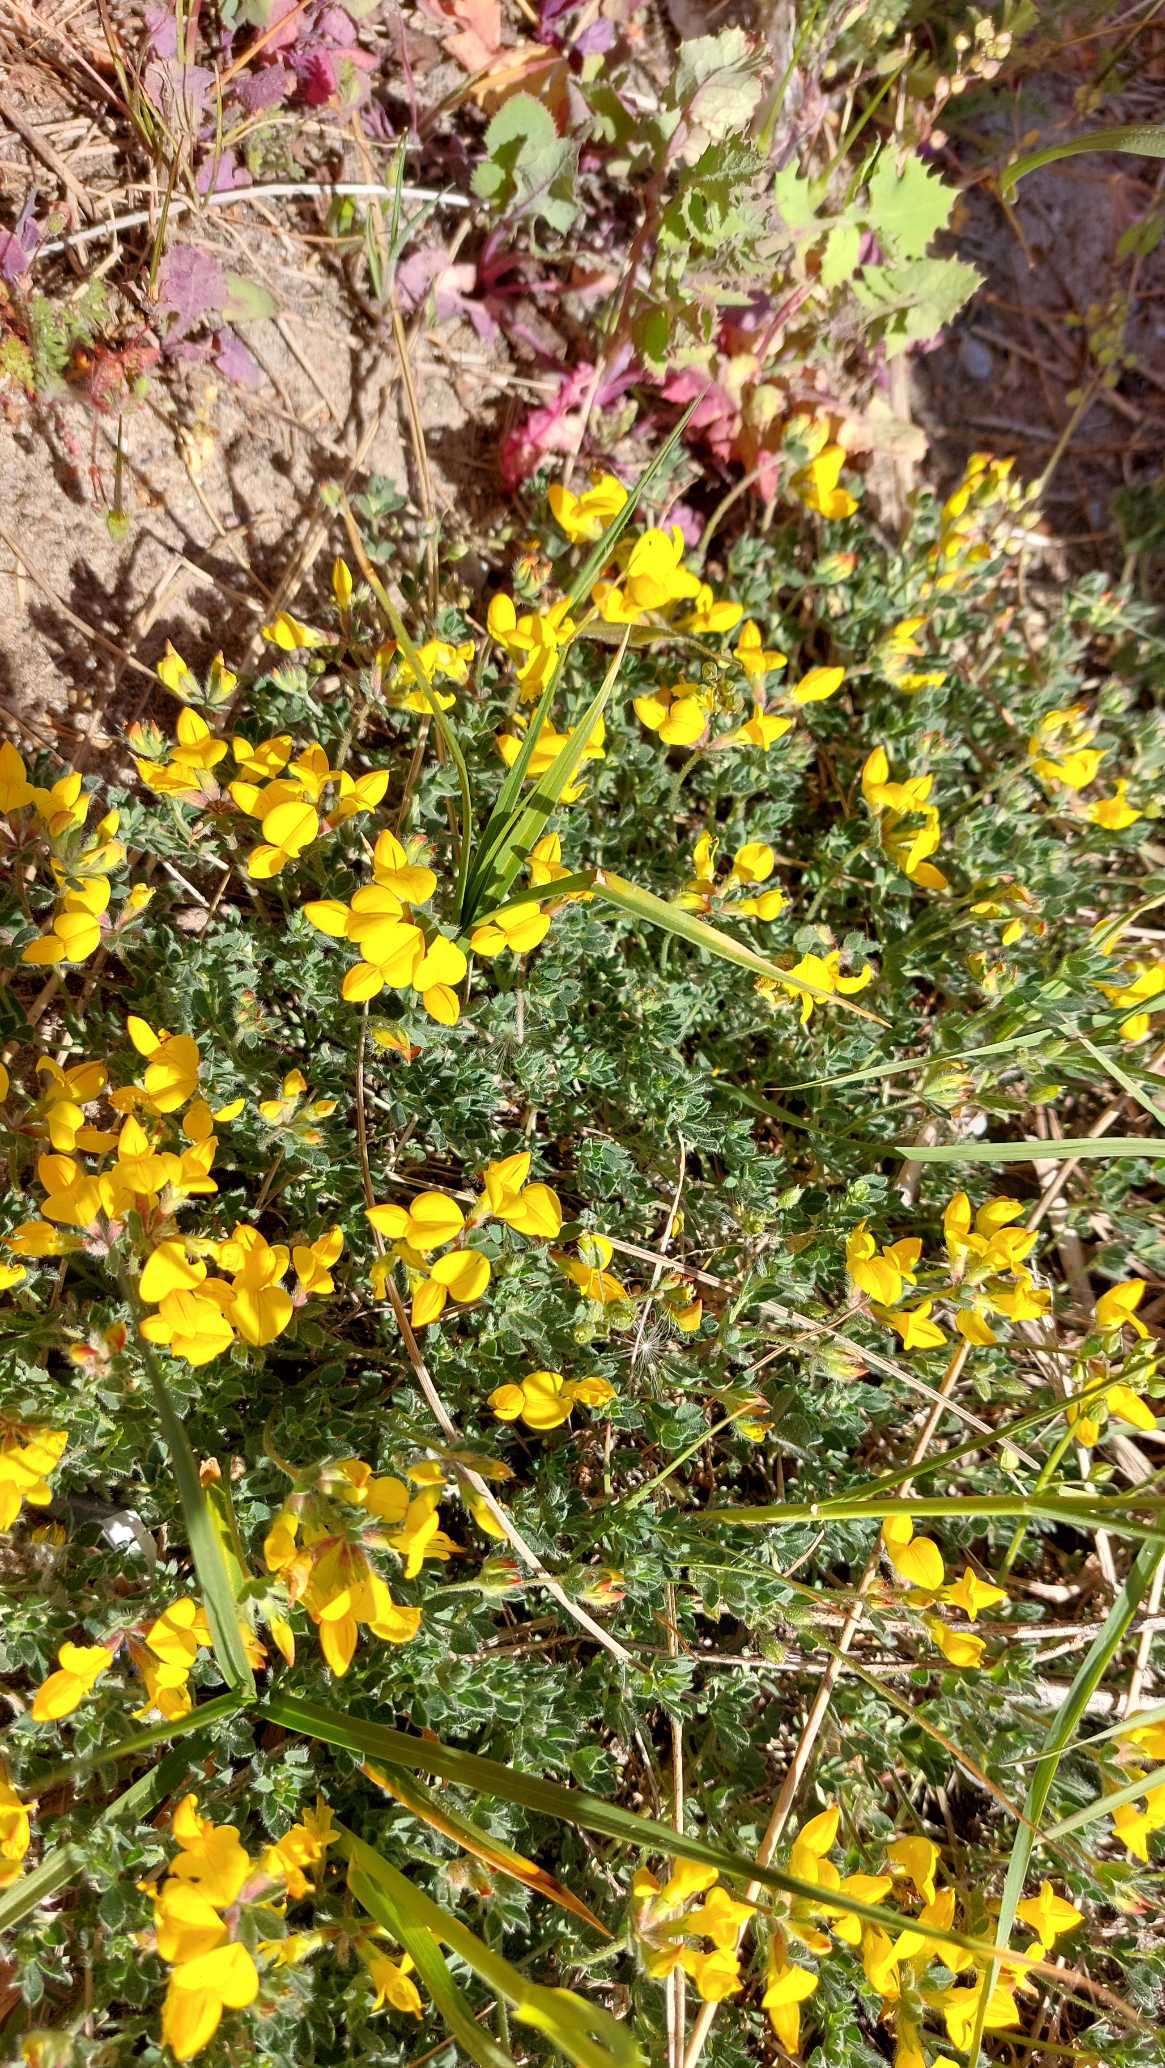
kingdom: Plantae
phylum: Tracheophyta
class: Magnoliopsida
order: Fabales
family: Fabaceae
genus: Lotus
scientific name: Lotus corniculatus
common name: Almindelig kællingetand
